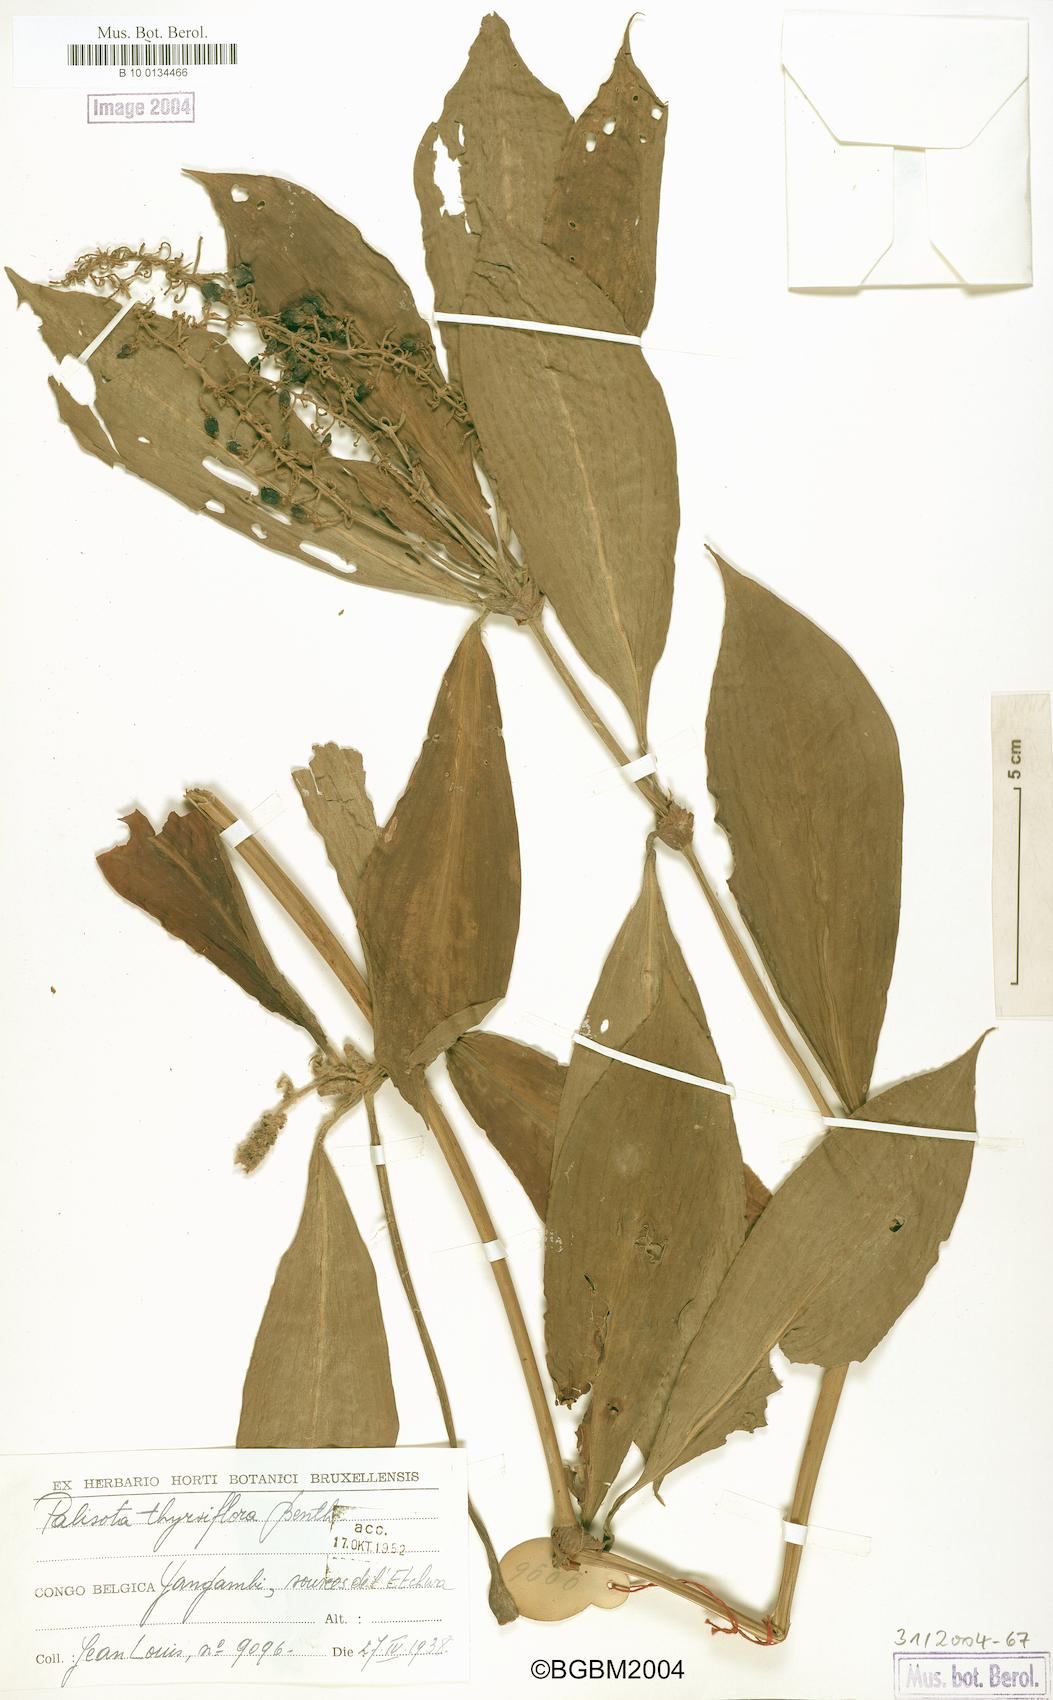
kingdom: Plantae
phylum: Tracheophyta
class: Liliopsida
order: Commelinales
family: Commelinaceae
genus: Palisota
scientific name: Palisota thollonii
